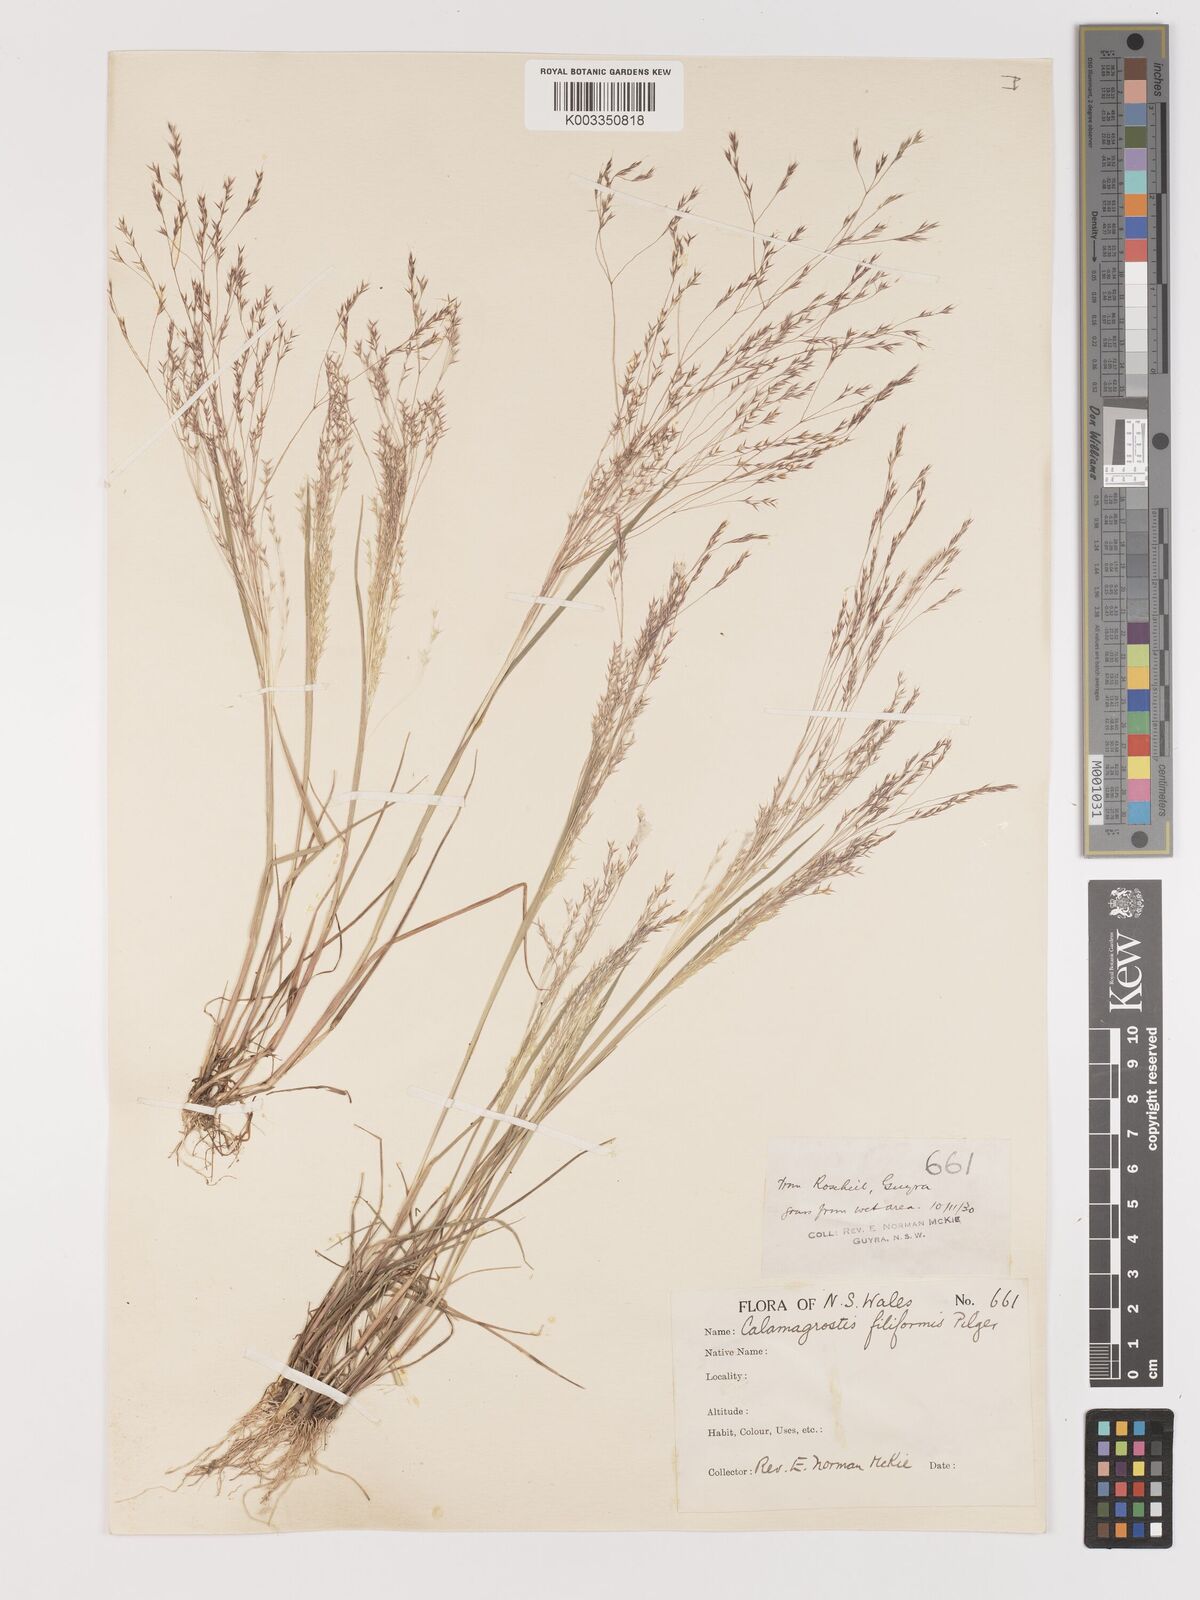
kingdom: Plantae
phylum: Tracheophyta
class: Liliopsida
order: Poales
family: Poaceae
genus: Lachnagrostis
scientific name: Lachnagrostis filiformis
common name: Bentgrass
